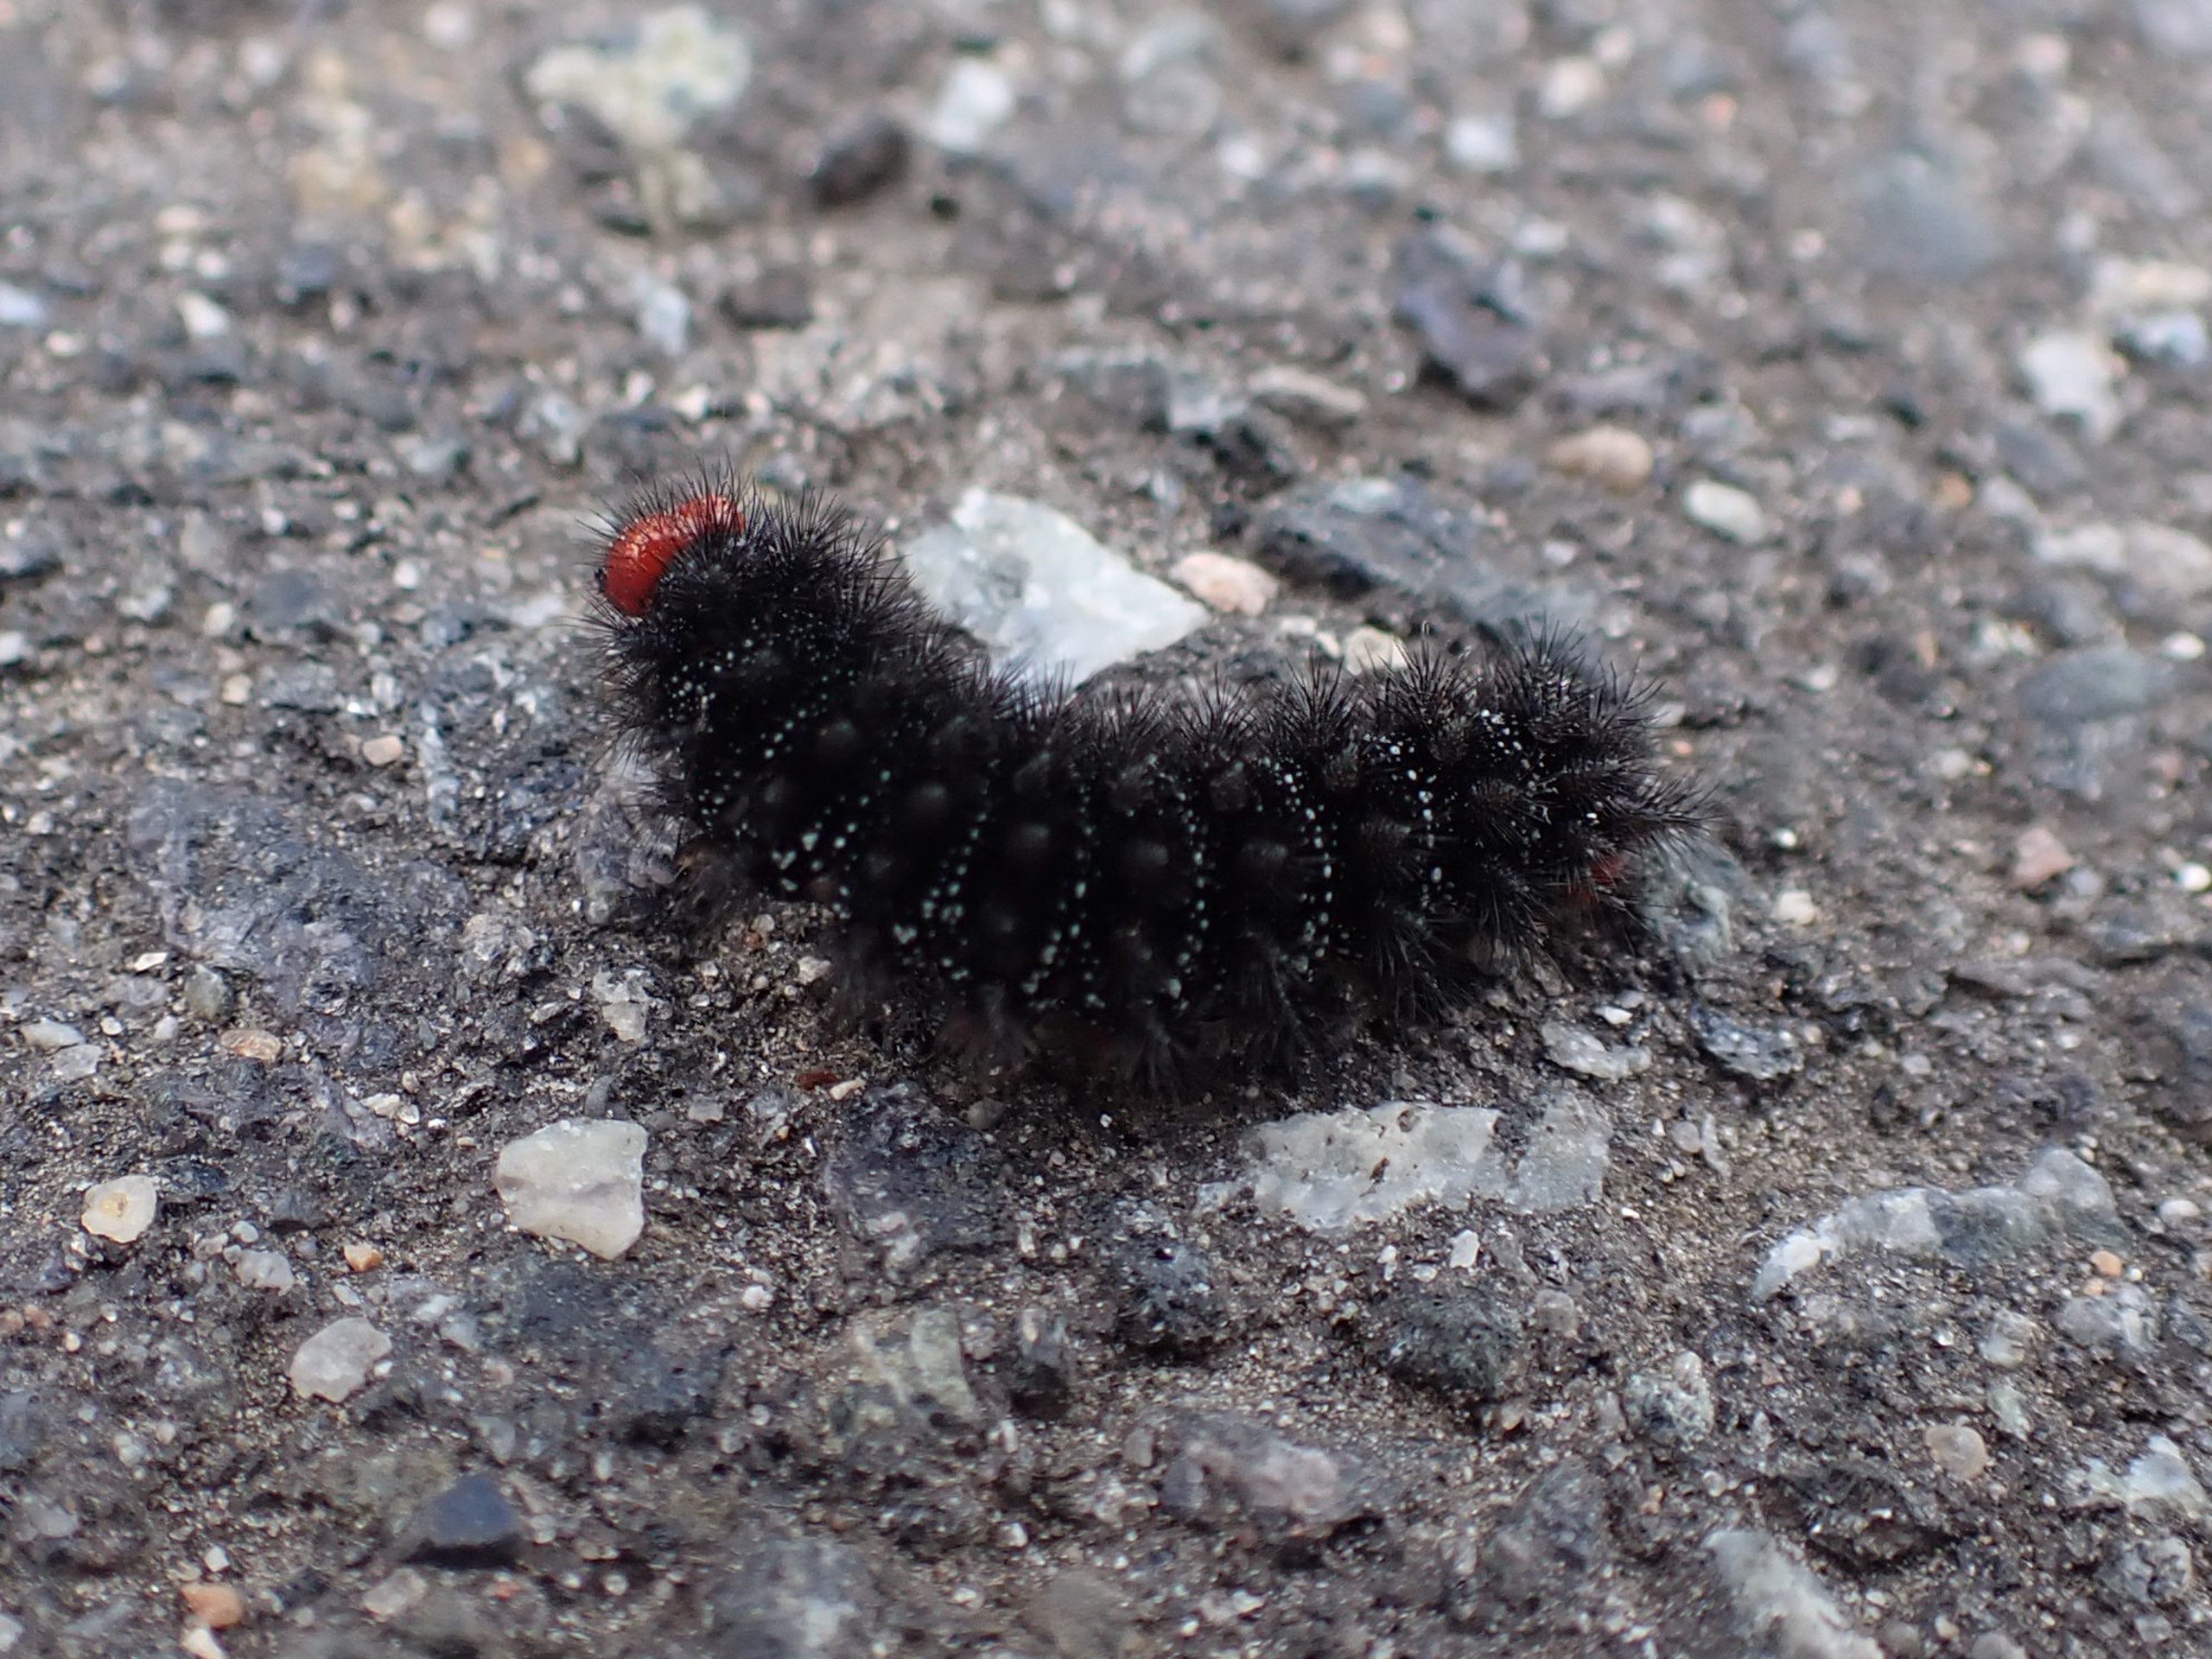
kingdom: Animalia
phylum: Arthropoda
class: Insecta
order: Lepidoptera
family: Nymphalidae
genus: Melitaea
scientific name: Melitaea cinxia
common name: Okkergul pletvinge
